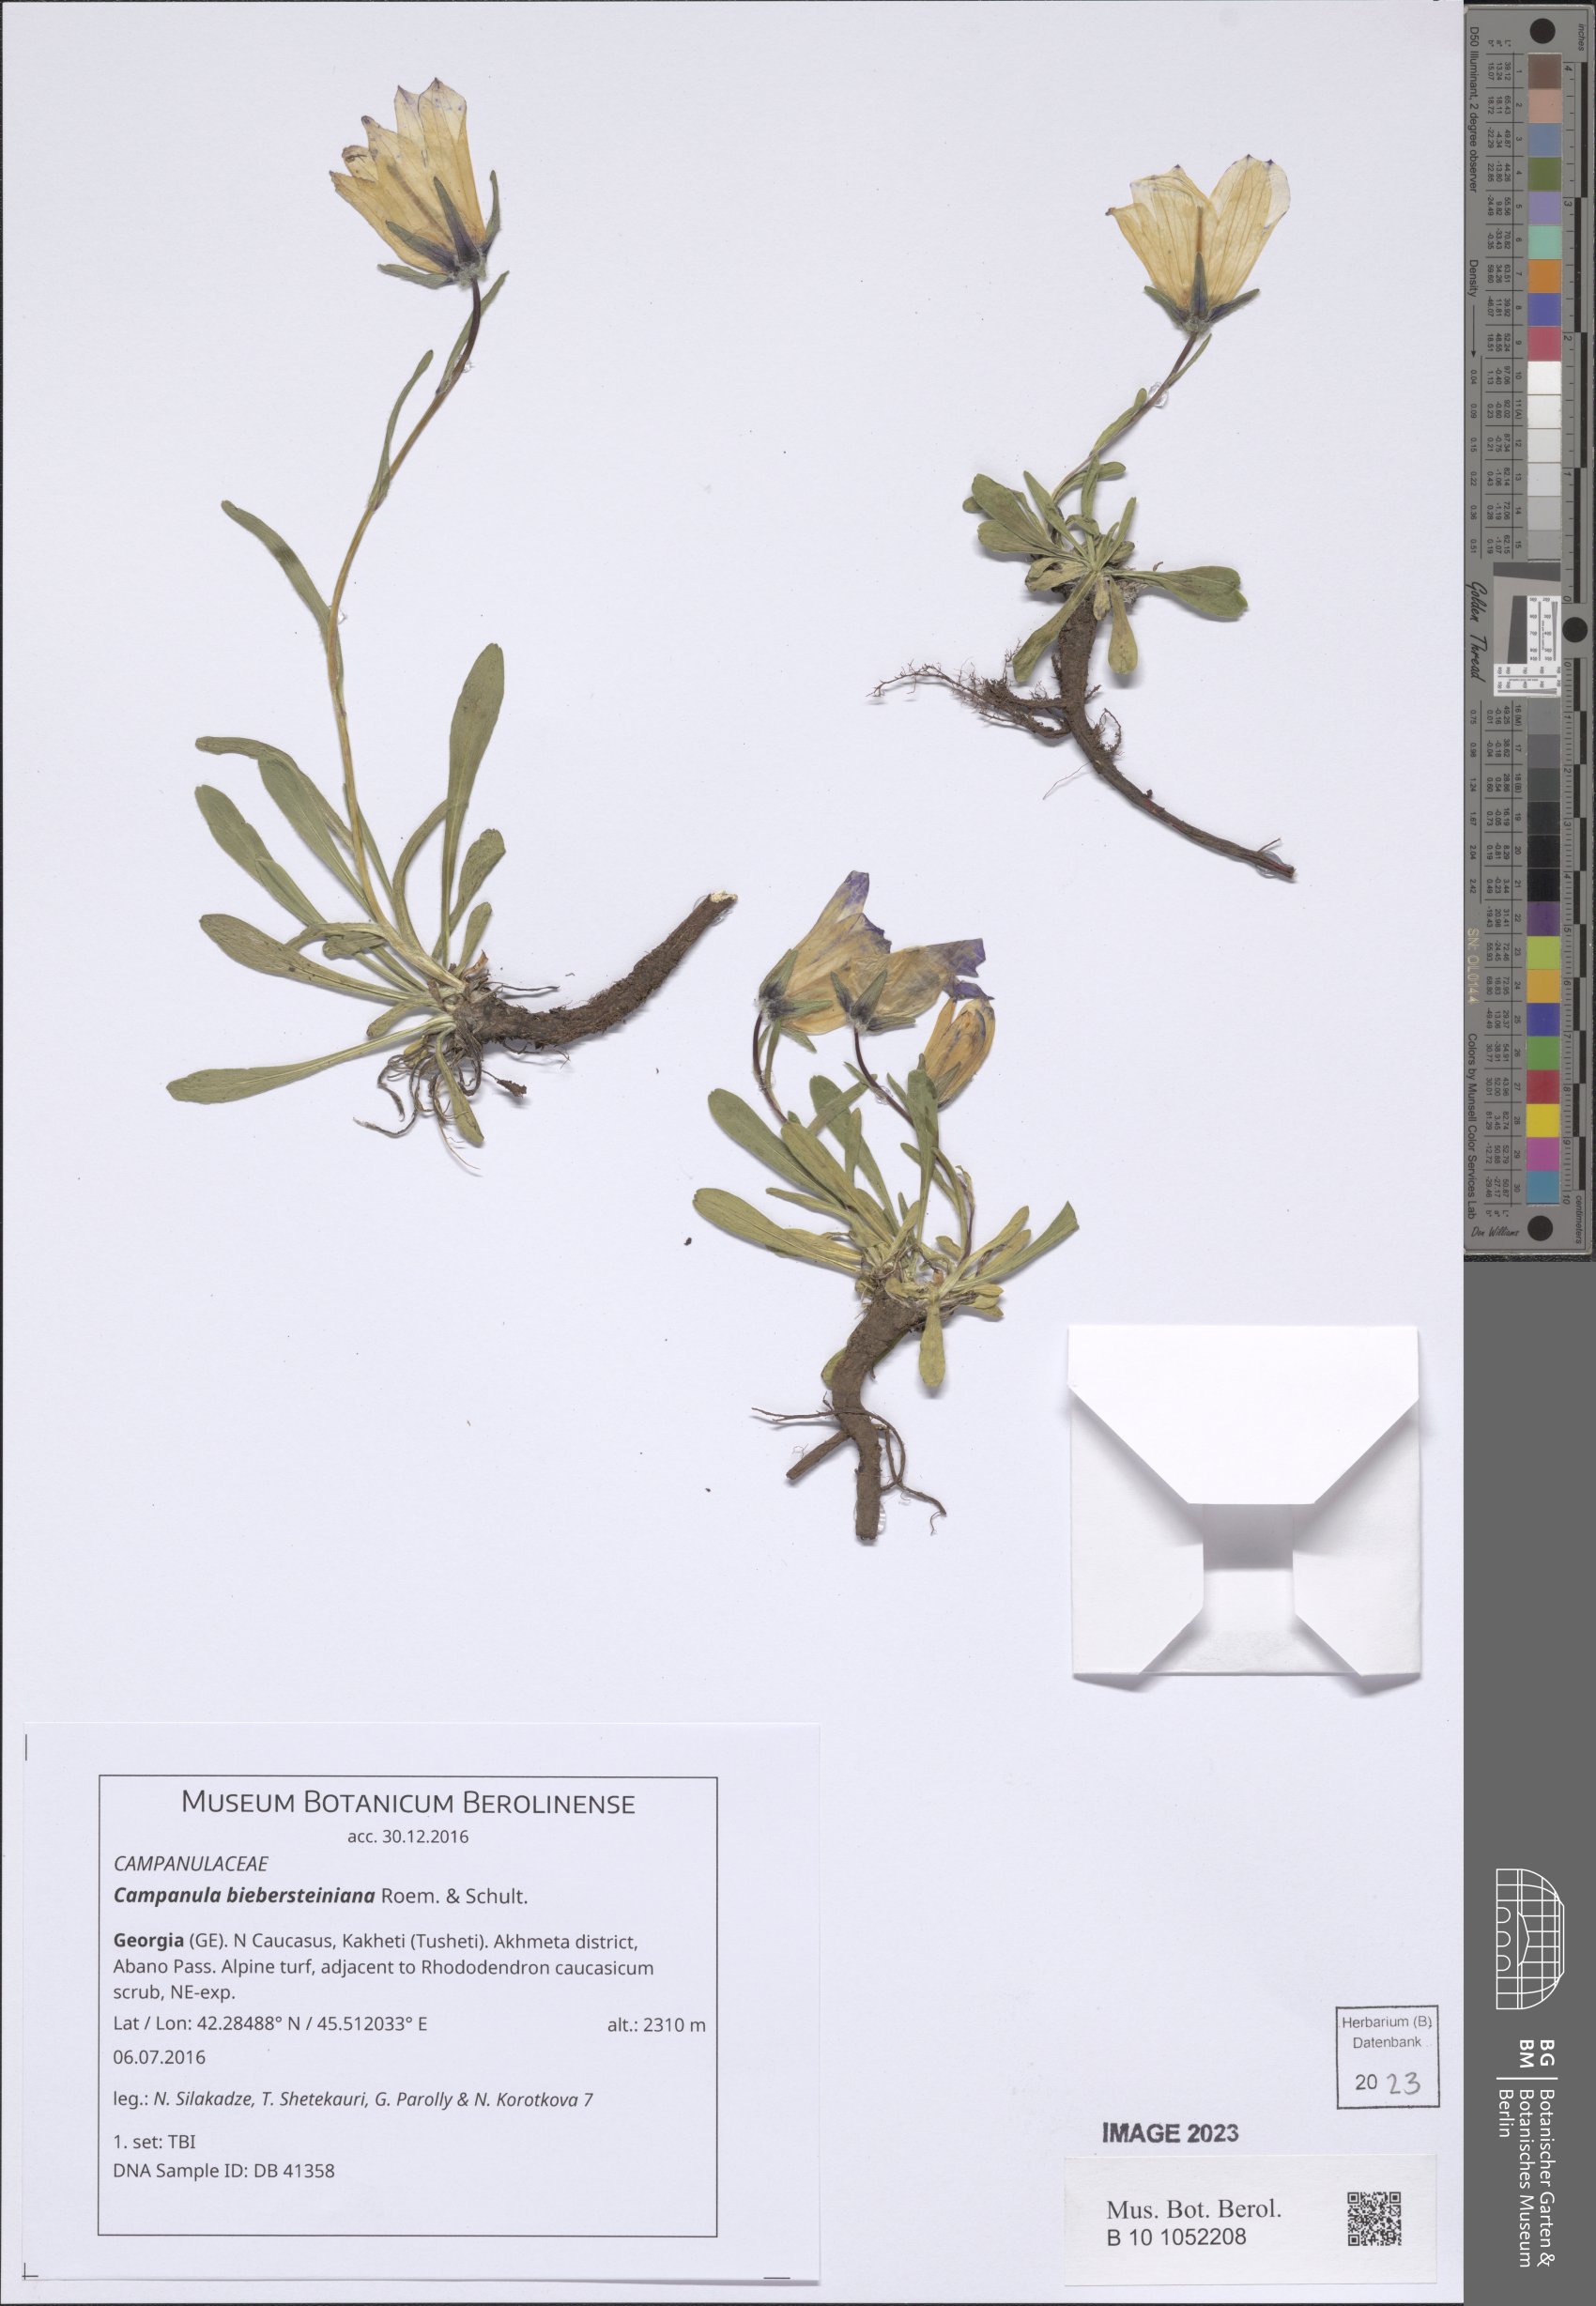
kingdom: Plantae
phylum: Tracheophyta
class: Magnoliopsida
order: Asterales
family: Campanulaceae
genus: Campanula
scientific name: Campanula tridentata
